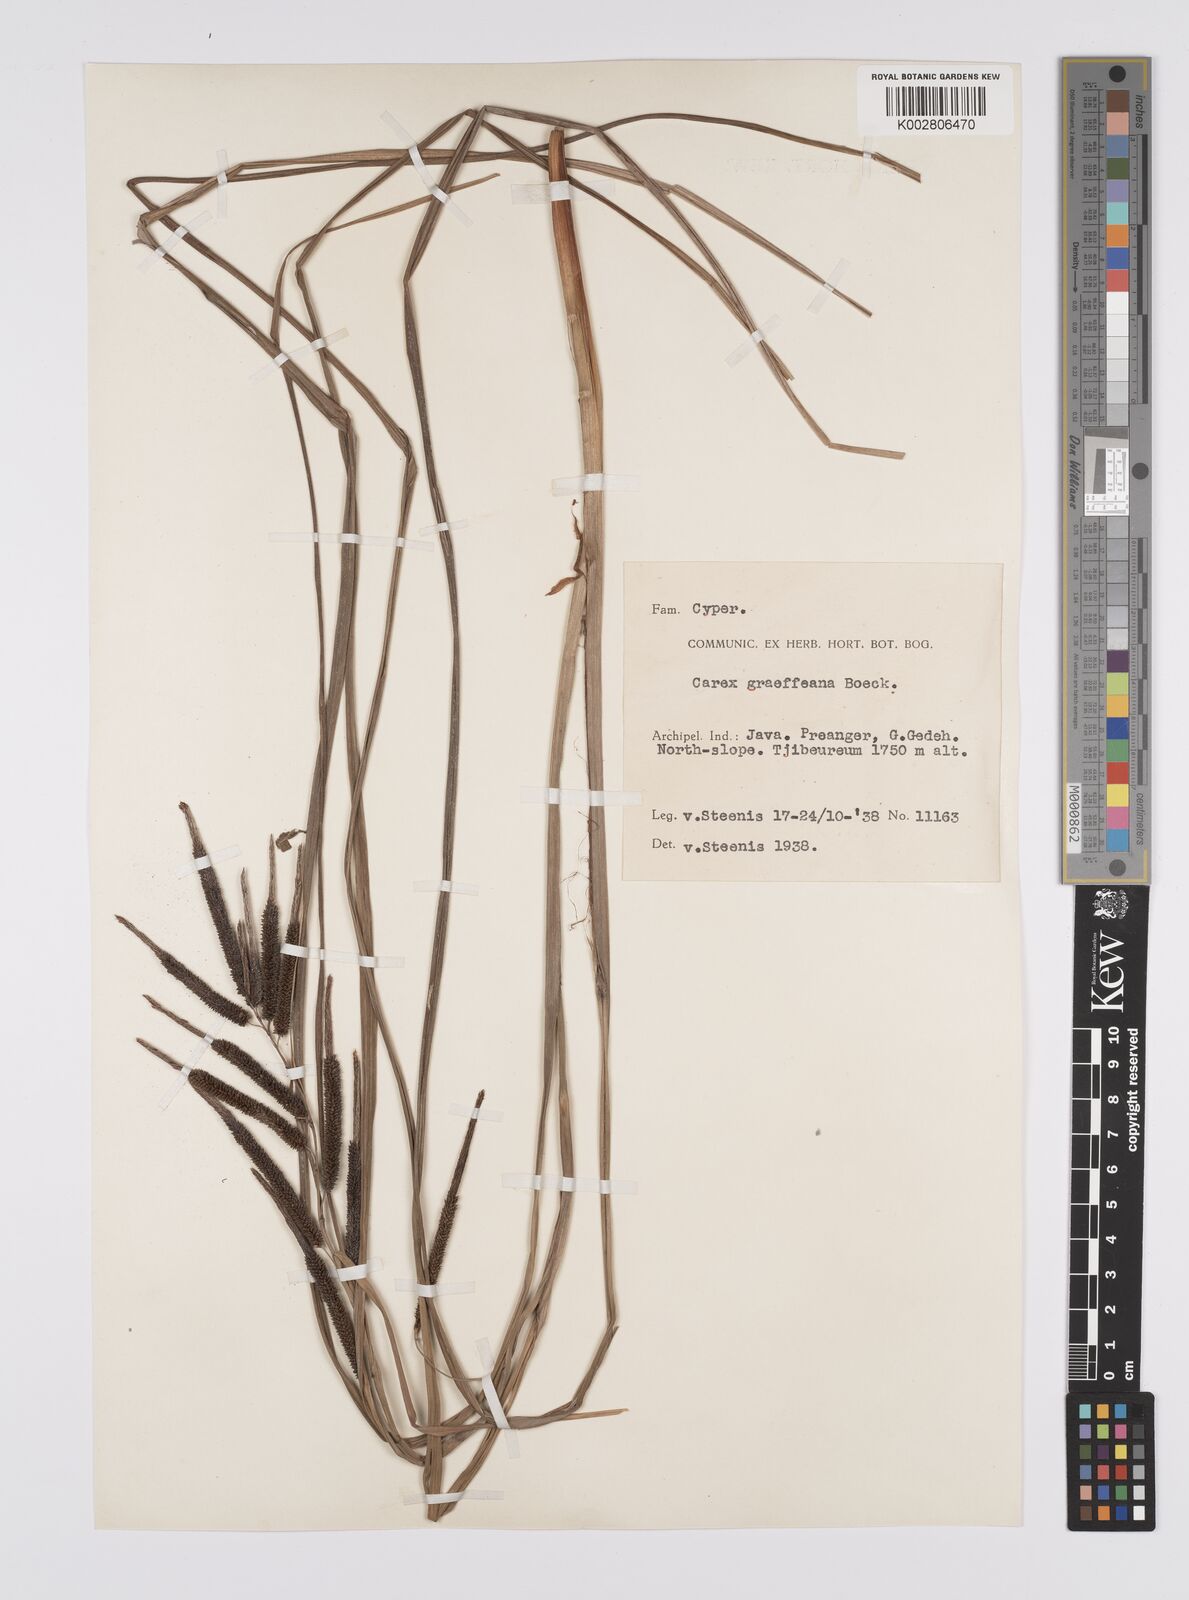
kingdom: Plantae
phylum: Tracheophyta
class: Liliopsida
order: Poales
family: Cyperaceae
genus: Carex
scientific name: Carex graeffeana
